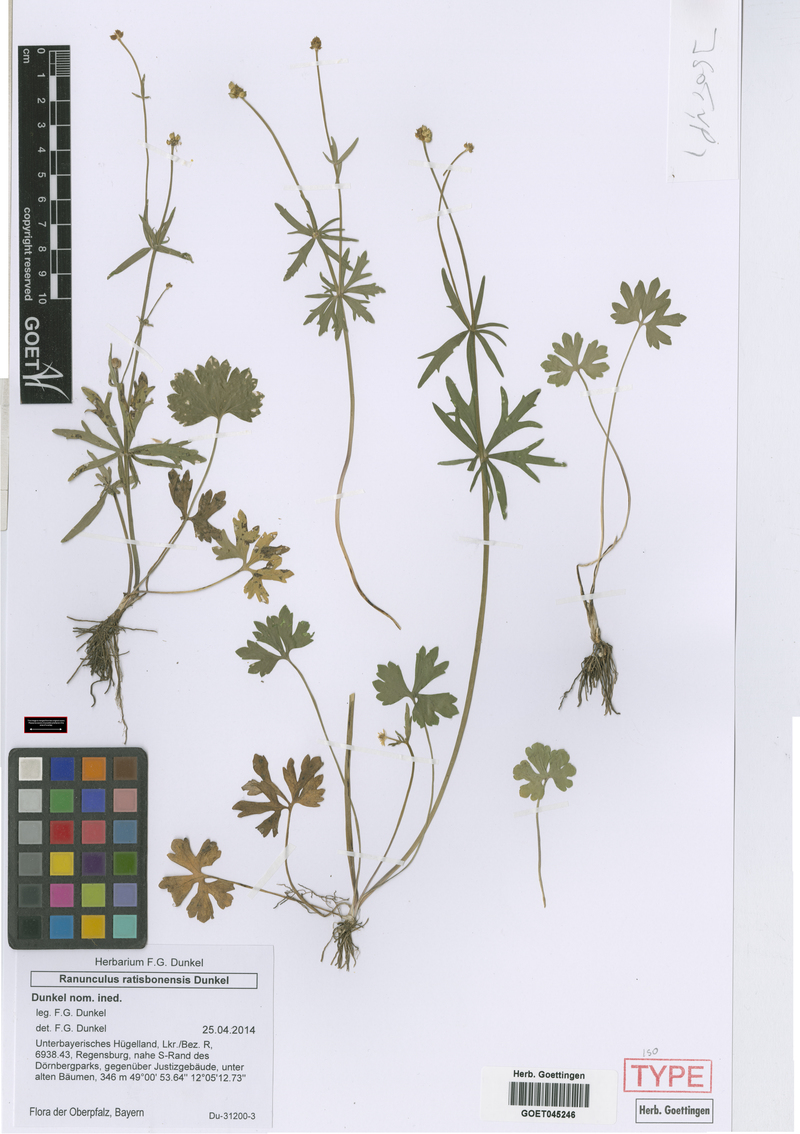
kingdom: Plantae
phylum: Tracheophyta
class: Magnoliopsida
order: Ranunculales
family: Ranunculaceae
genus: Ranunculus
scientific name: Ranunculus ratisbonensis
